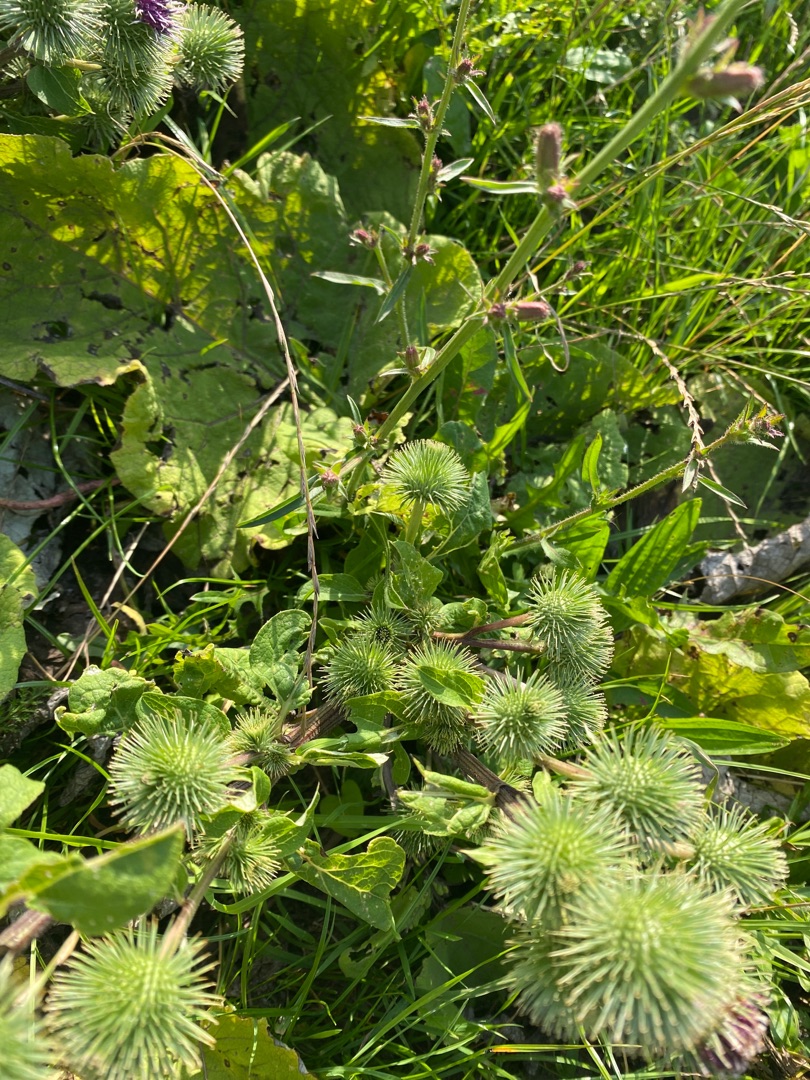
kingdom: Plantae
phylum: Tracheophyta
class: Magnoliopsida
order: Asterales
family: Asteraceae
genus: Arctium
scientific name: Arctium lappa
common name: Glat burre
